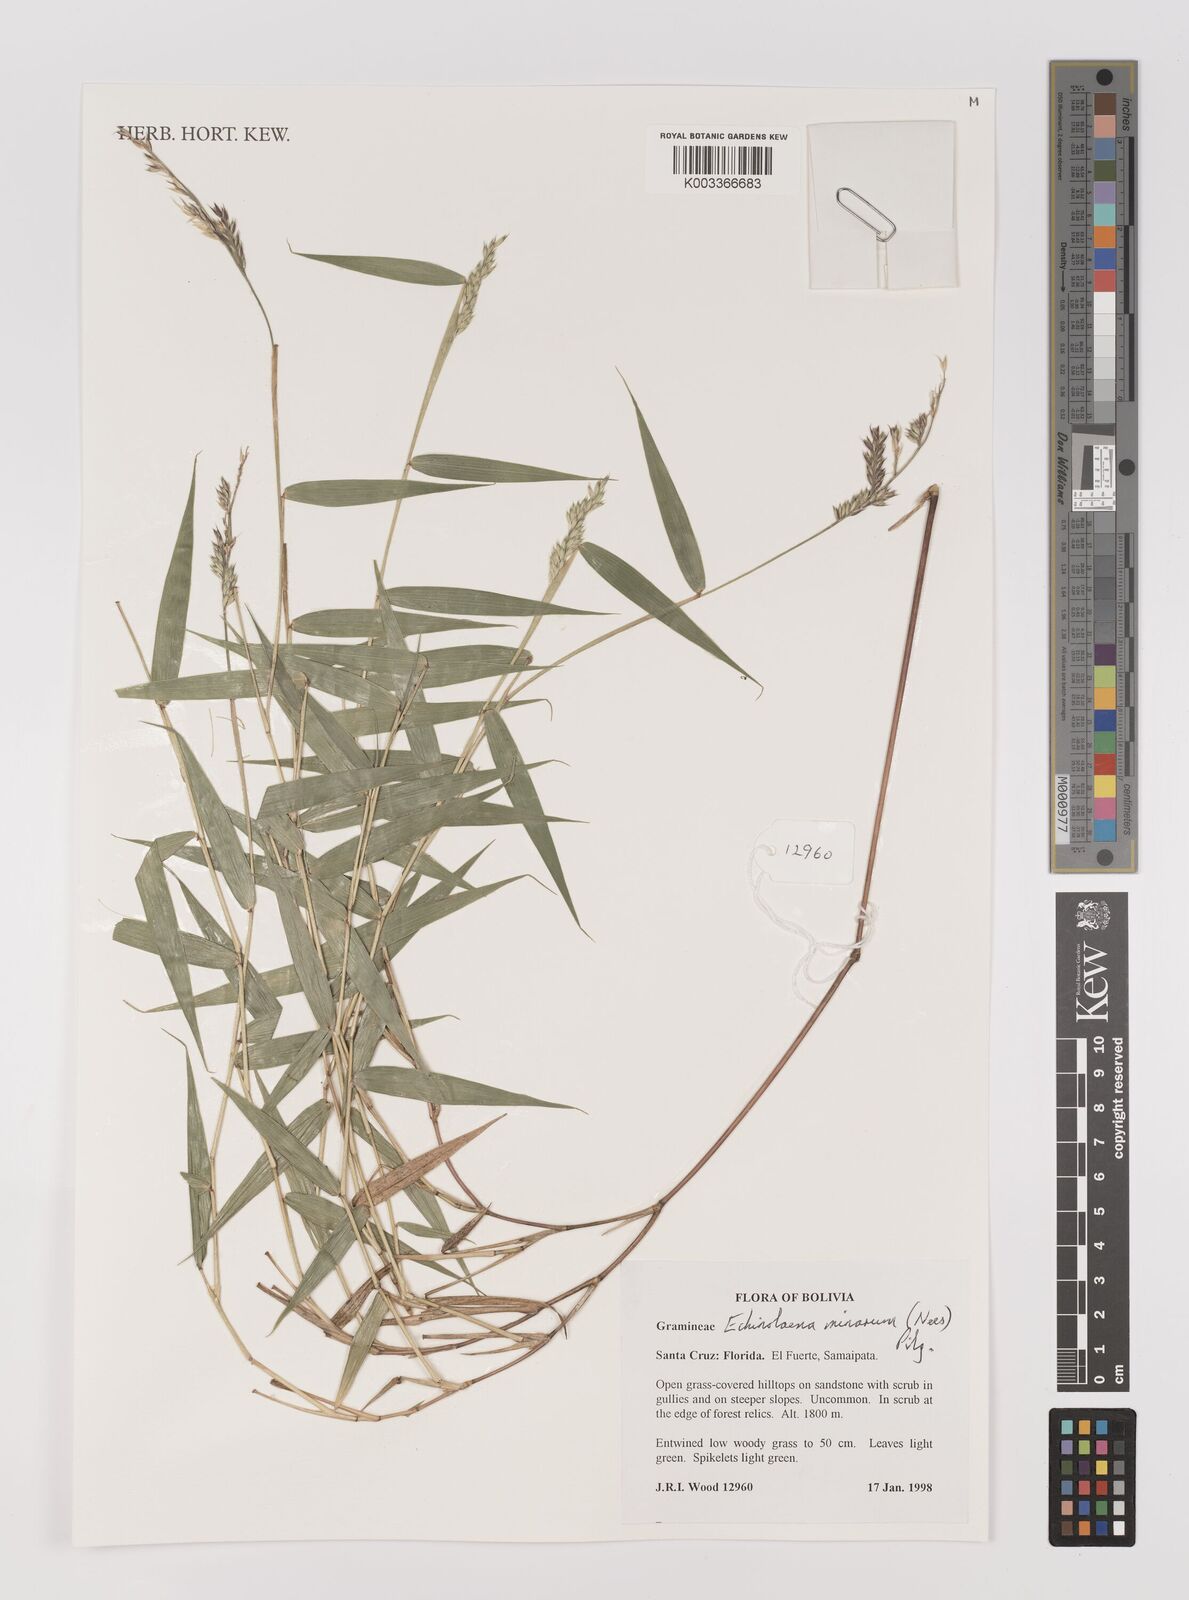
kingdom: Plantae
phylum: Tracheophyta
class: Liliopsida
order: Poales
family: Poaceae
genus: Oedochloa
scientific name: Oedochloa minarum
